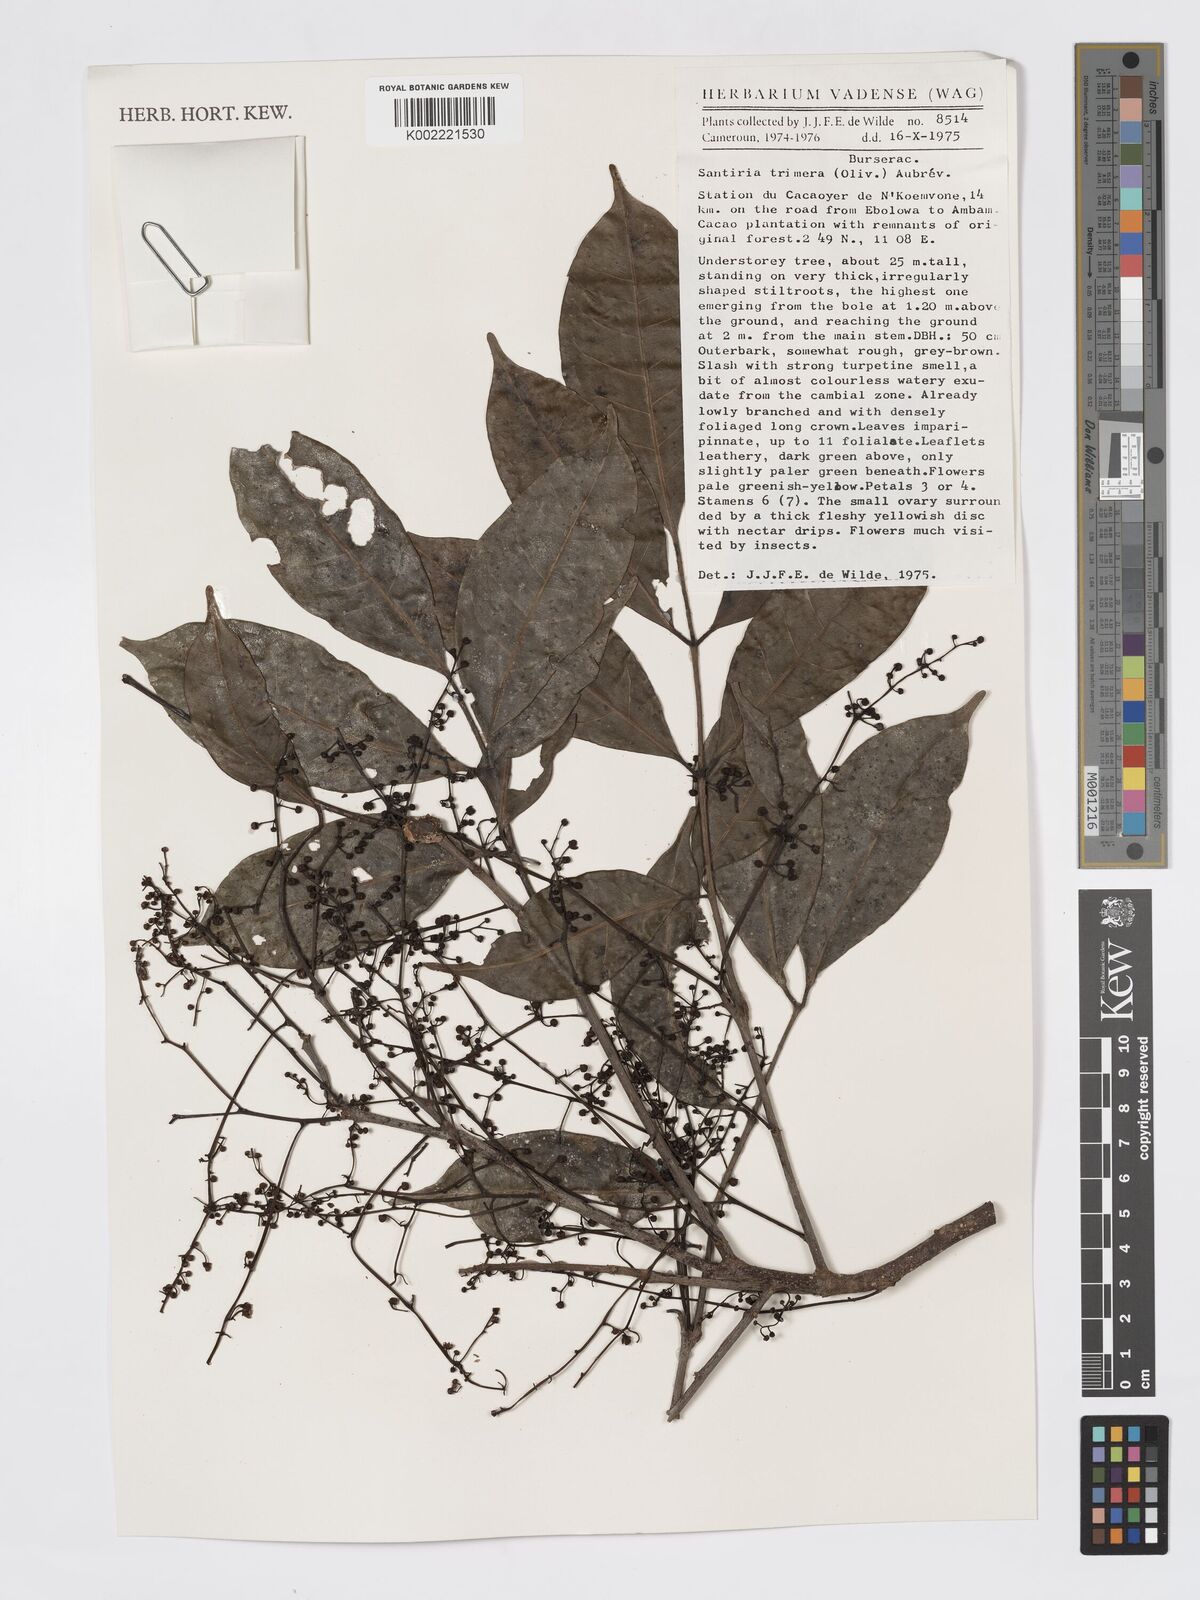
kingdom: Plantae
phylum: Tracheophyta
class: Magnoliopsida
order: Sapindales
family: Burseraceae
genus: Pachylobus
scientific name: Pachylobus trimerus
